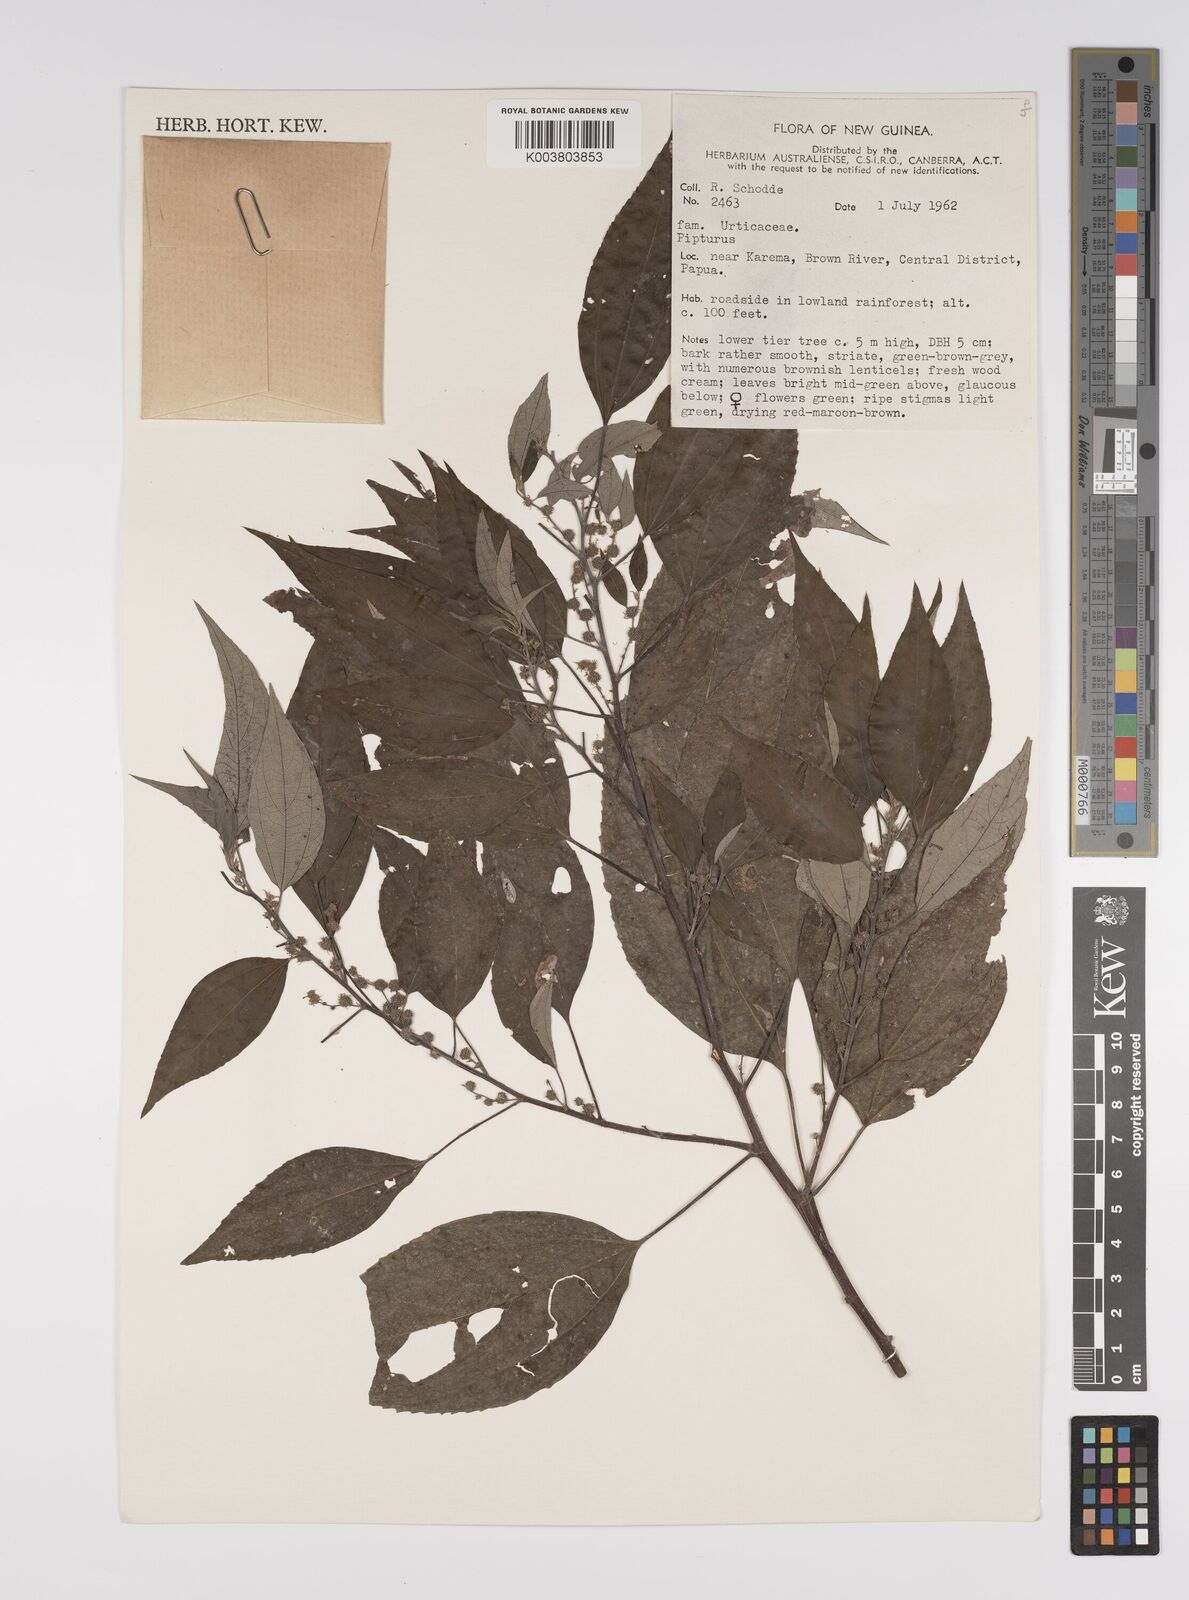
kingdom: Plantae
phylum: Tracheophyta
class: Magnoliopsida
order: Rosales
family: Urticaceae
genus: Pipturus
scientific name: Pipturus argenteus
